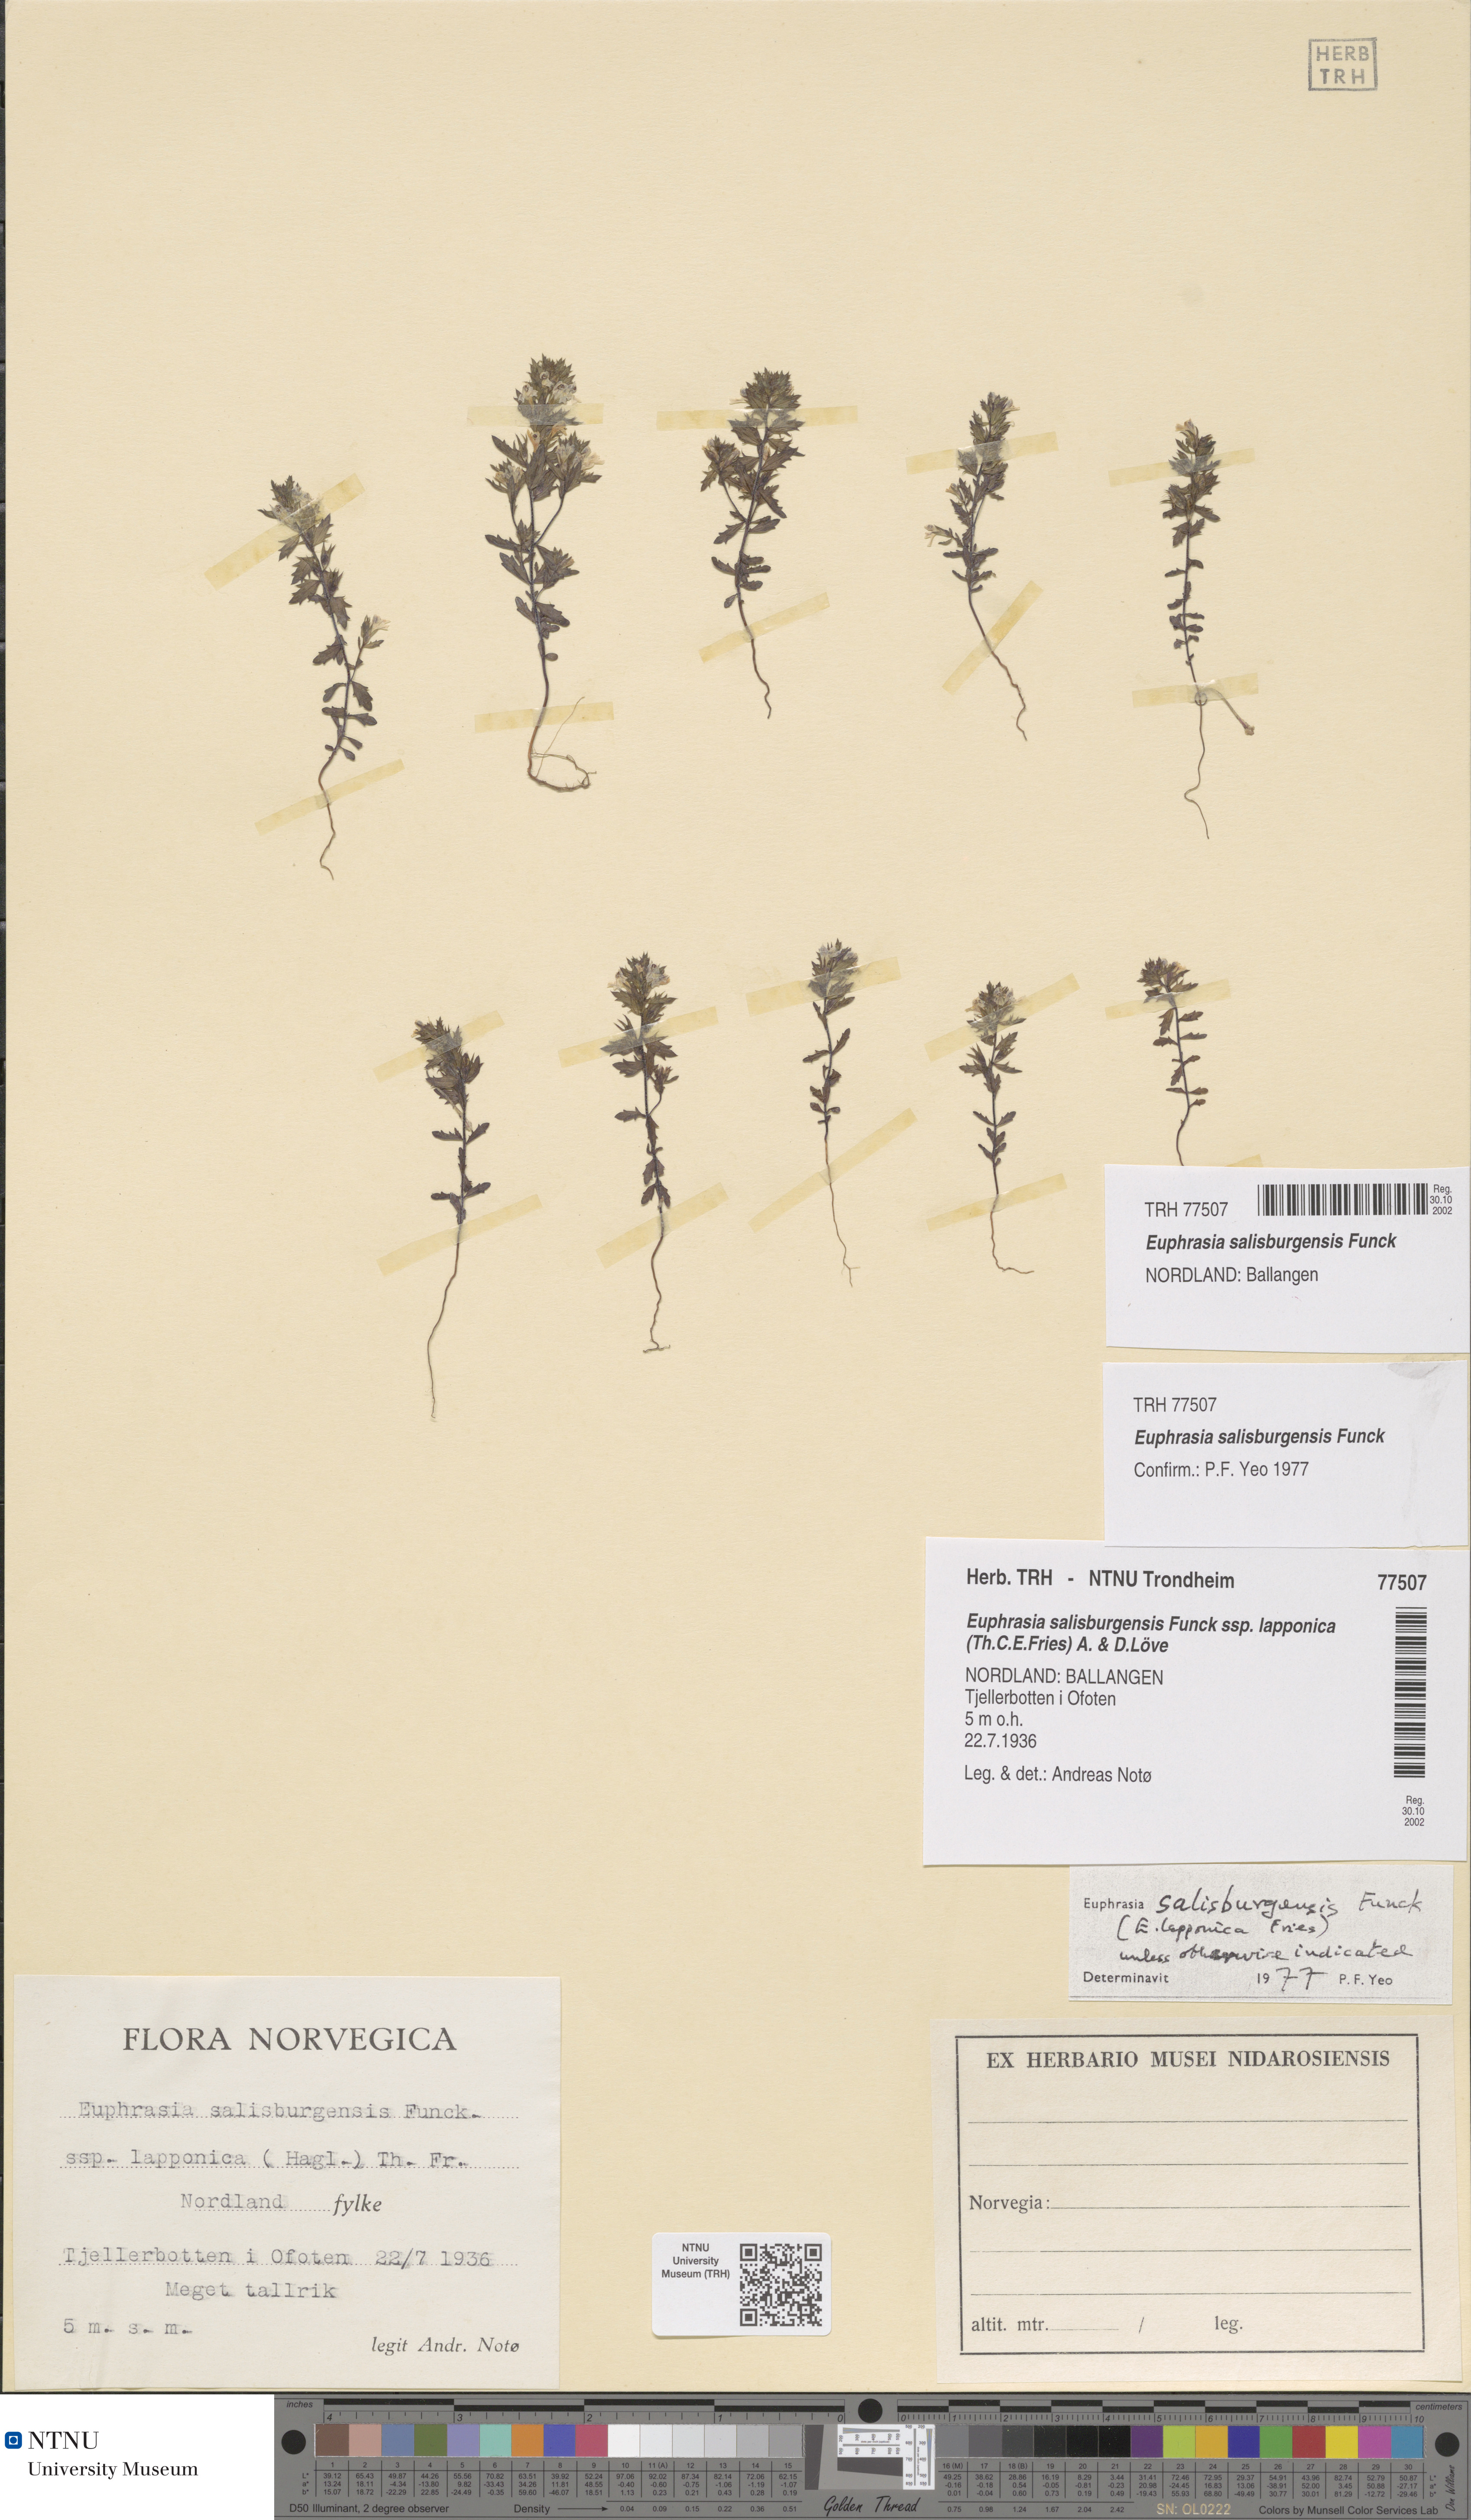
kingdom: Plantae
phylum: Tracheophyta
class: Magnoliopsida
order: Lamiales
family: Orobanchaceae
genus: Euphrasia
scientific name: Euphrasia salisburgensis
